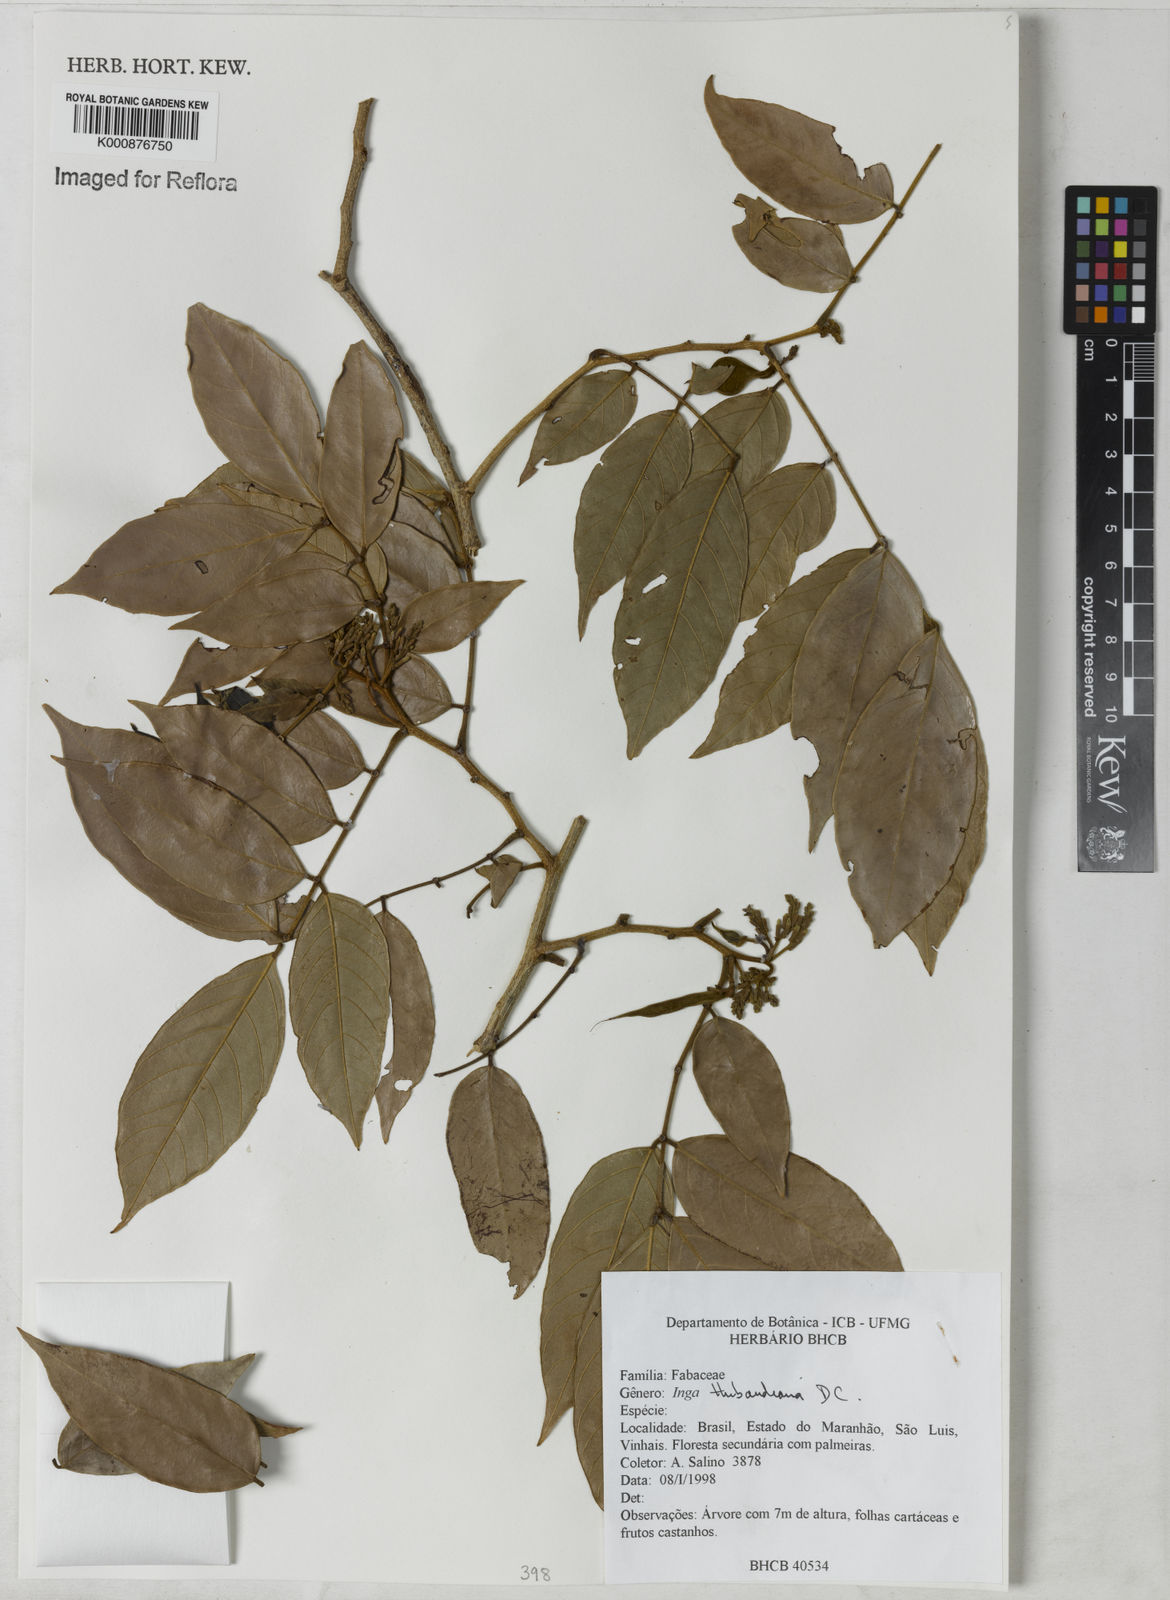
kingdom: Plantae
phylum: Tracheophyta
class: Magnoliopsida
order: Fabales
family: Fabaceae
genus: Inga
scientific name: Inga thibaudiana
